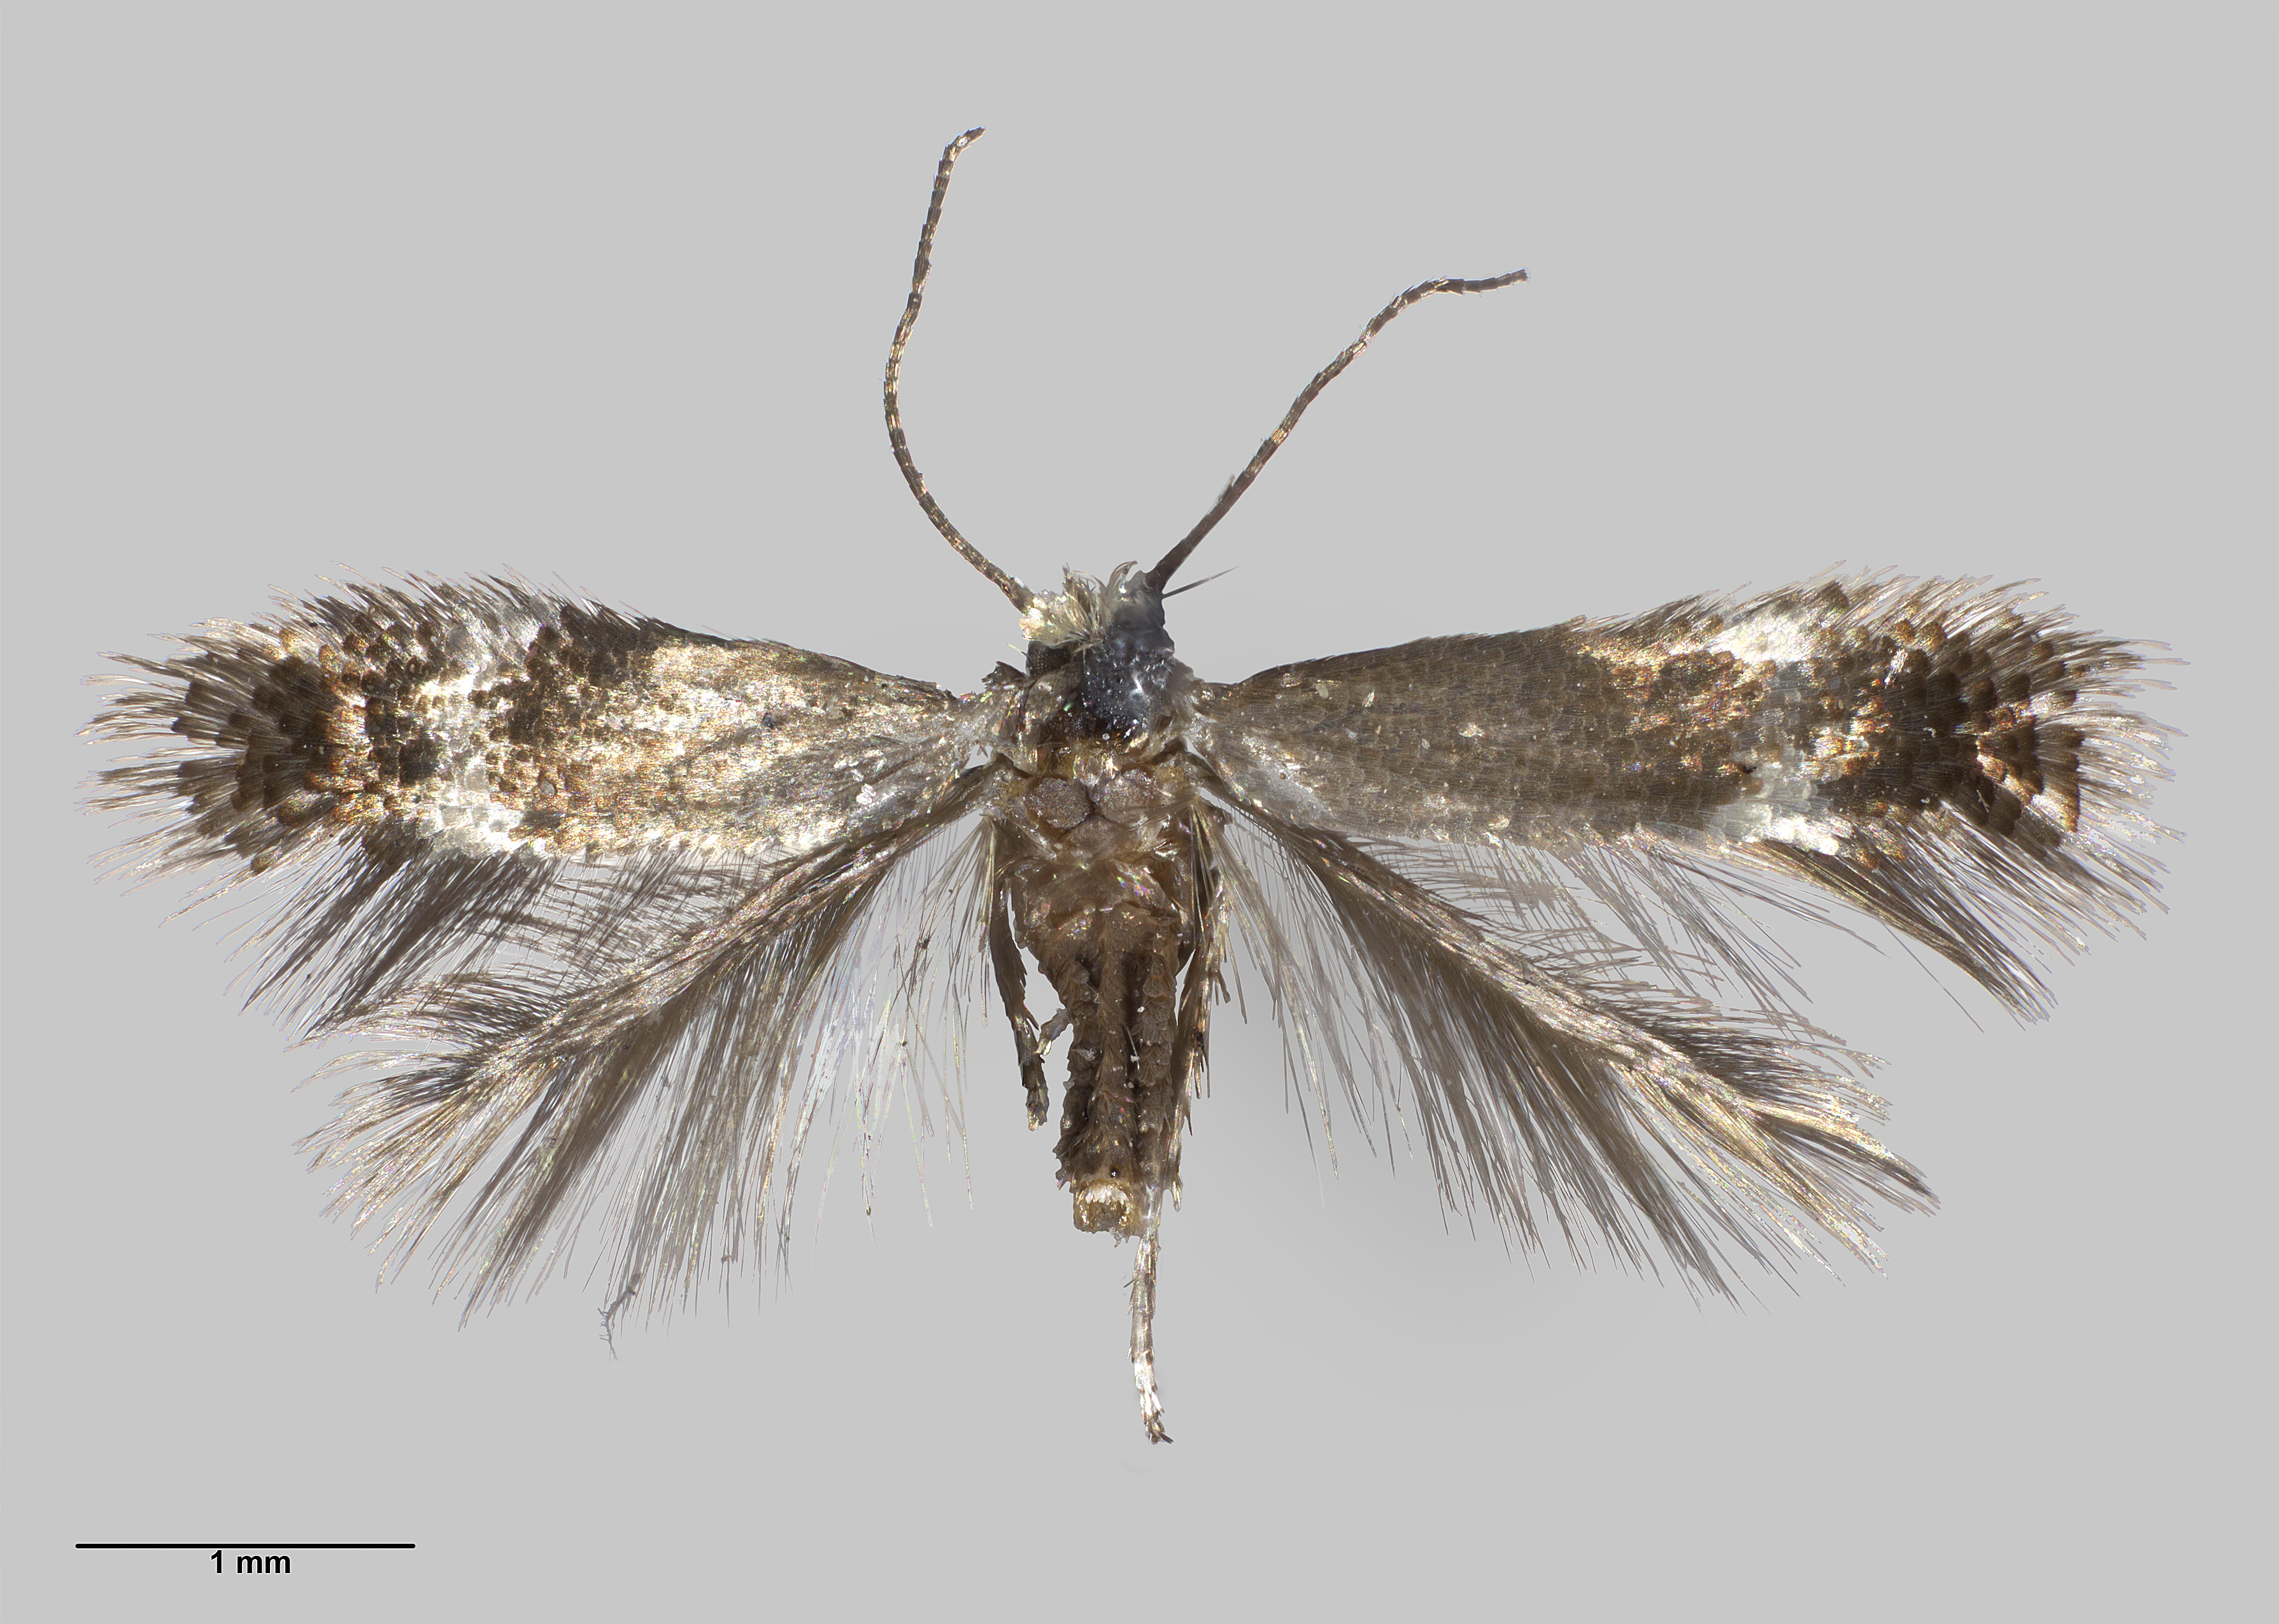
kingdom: Animalia
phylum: Arthropoda
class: Insecta
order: Lepidoptera
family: Nepticulidae
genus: Stigmella
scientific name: Stigmella lucida
